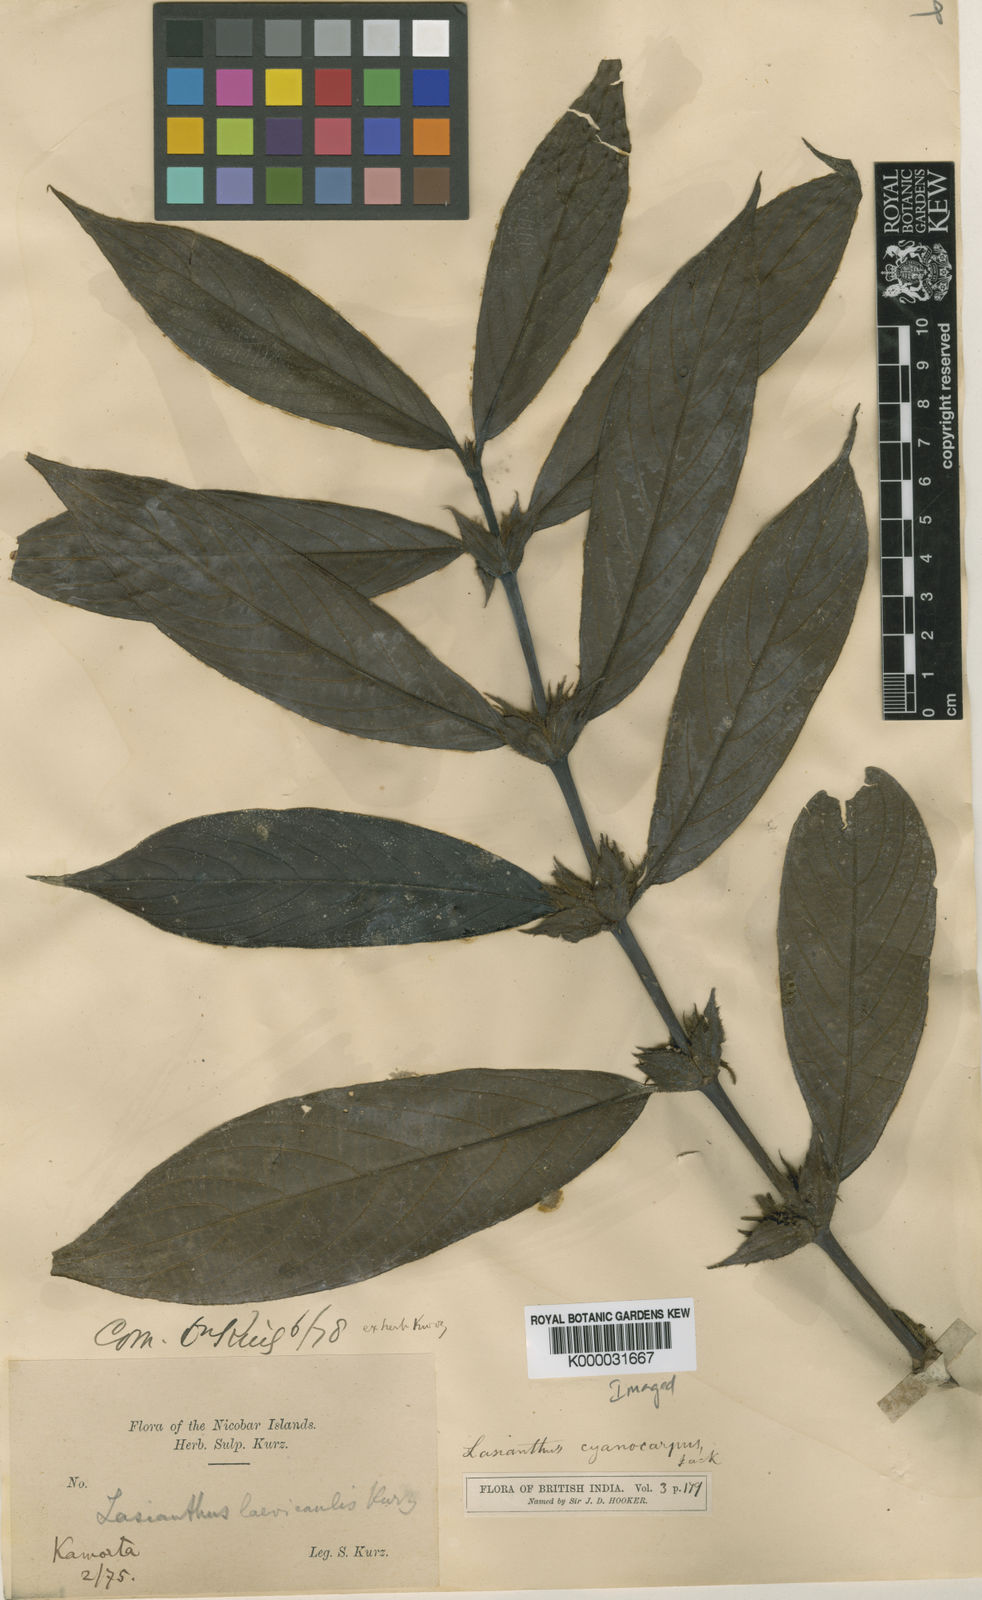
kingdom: Plantae
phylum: Tracheophyta
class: Magnoliopsida
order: Gentianales
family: Rubiaceae
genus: Lasianthus
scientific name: Lasianthus cyanocarpus
